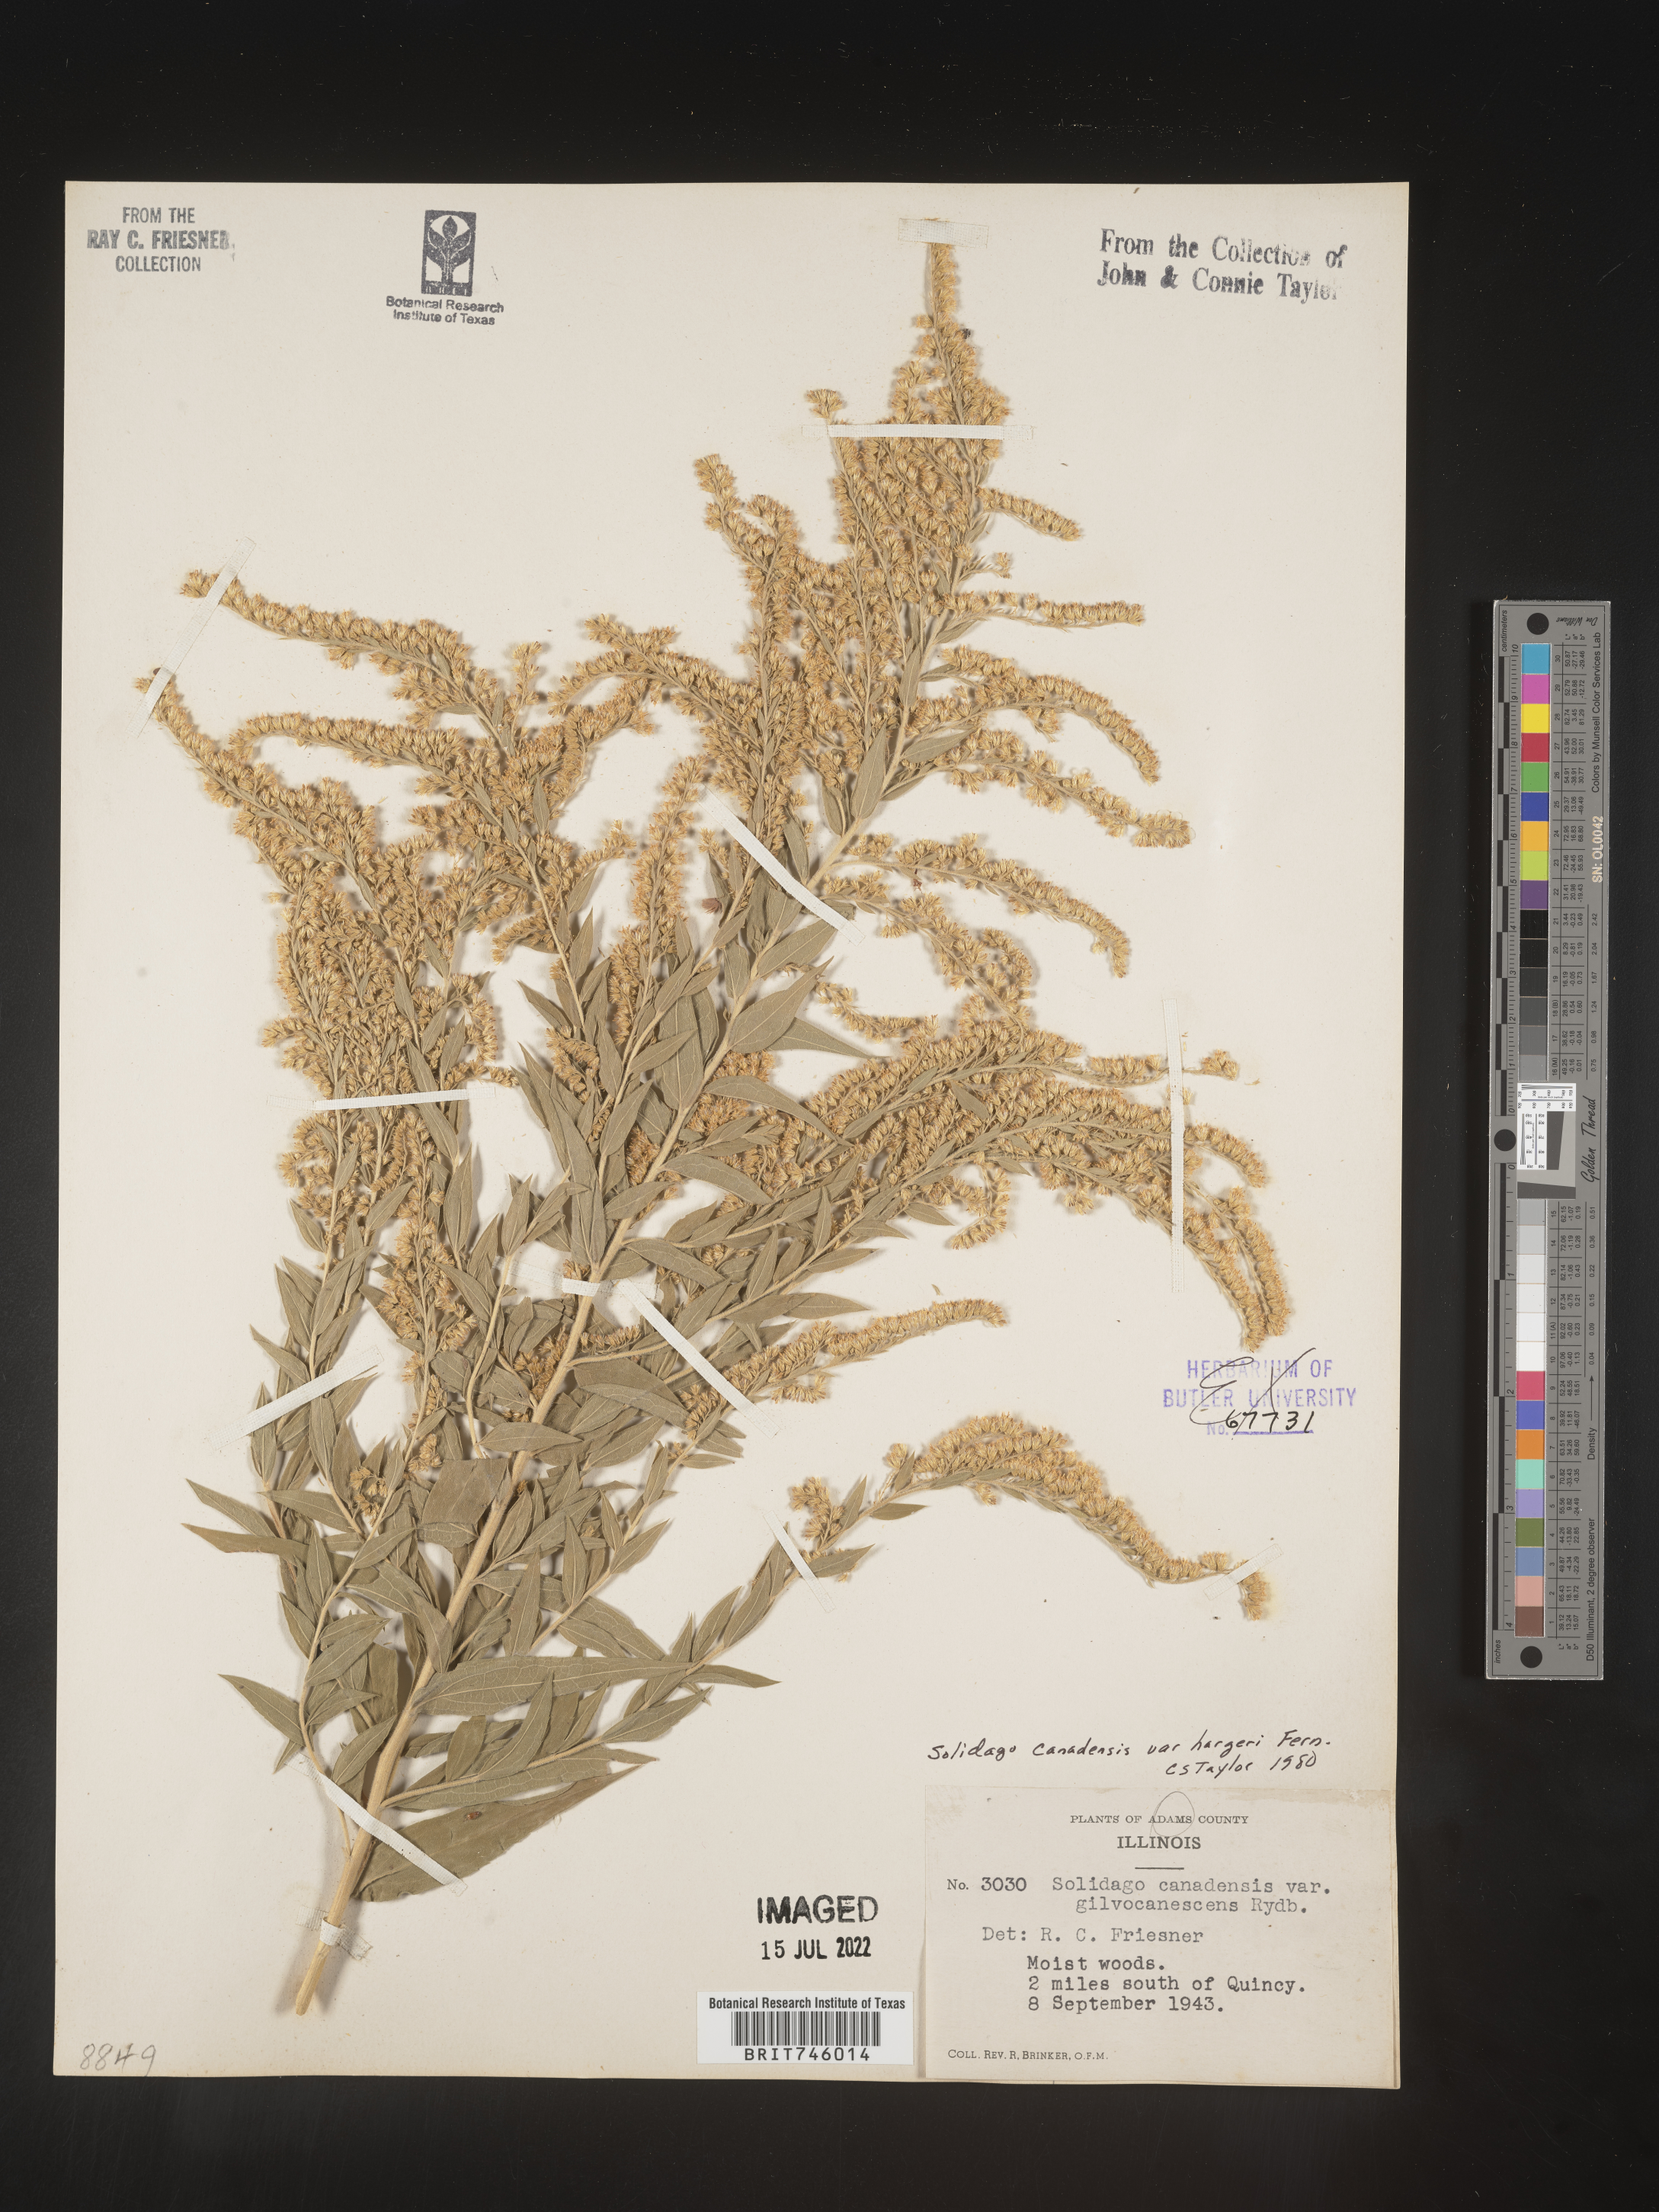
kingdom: Plantae
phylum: Tracheophyta
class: Magnoliopsida
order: Asterales
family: Asteraceae
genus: Solidago
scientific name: Solidago canadensis
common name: Canada goldenrod
